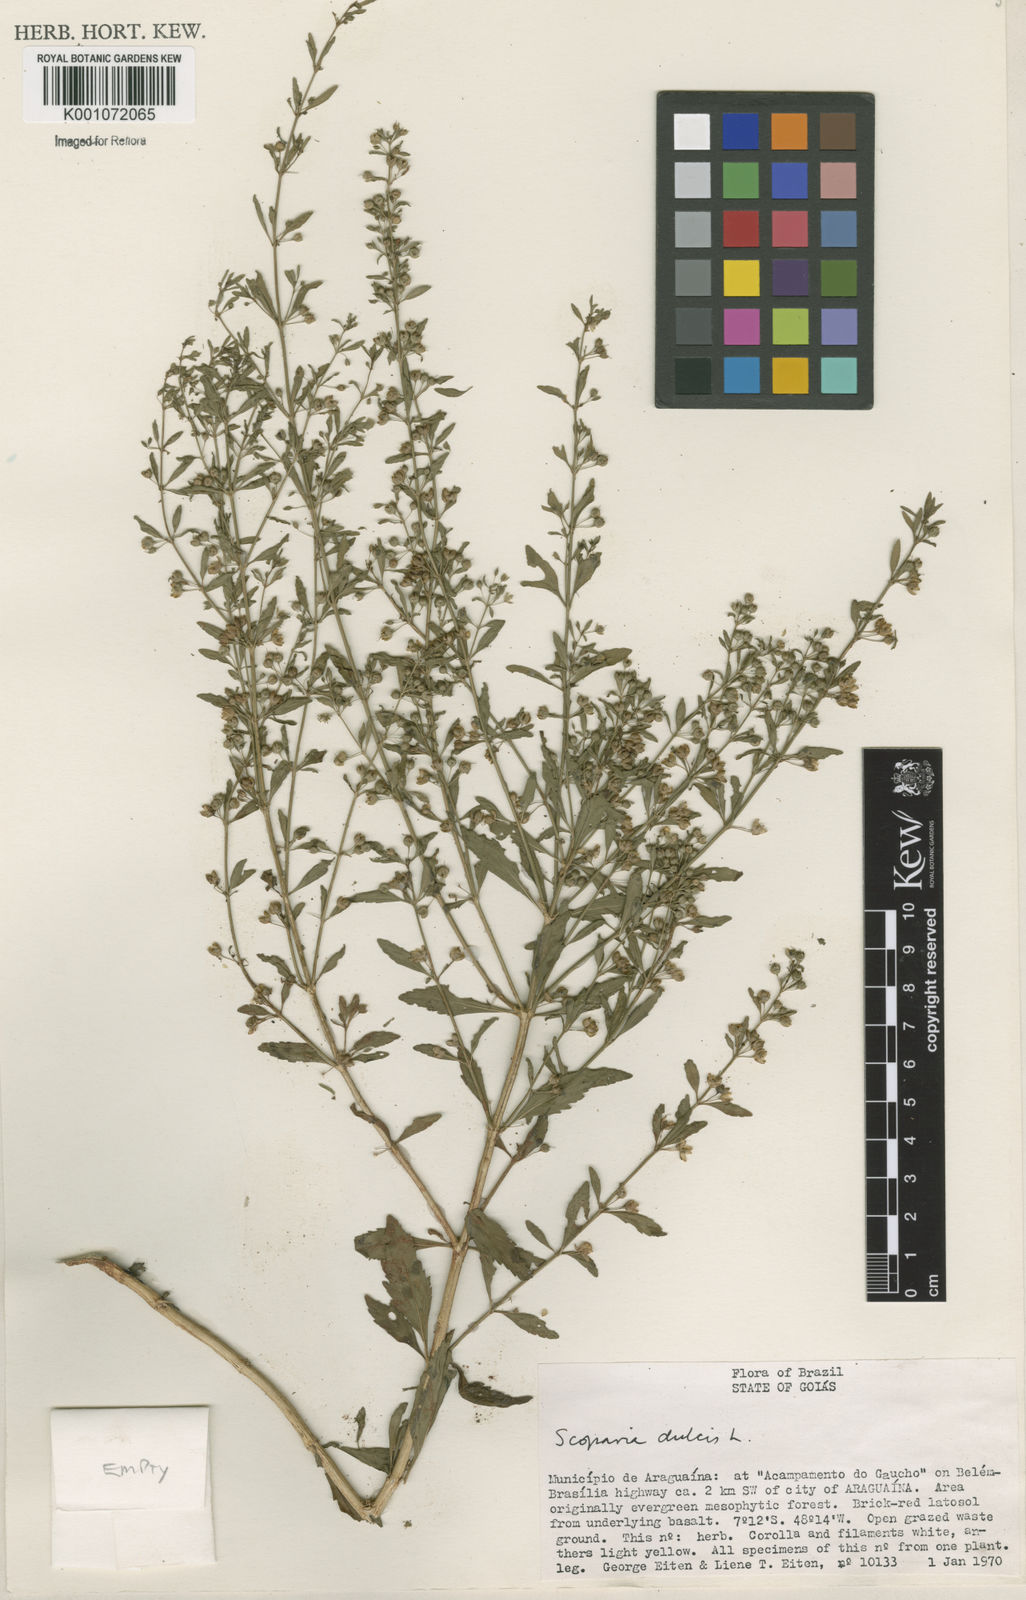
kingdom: Plantae
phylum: Tracheophyta
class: Magnoliopsida
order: Lamiales
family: Plantaginaceae
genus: Scoparia
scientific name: Scoparia dulcis
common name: Scoparia-weed
